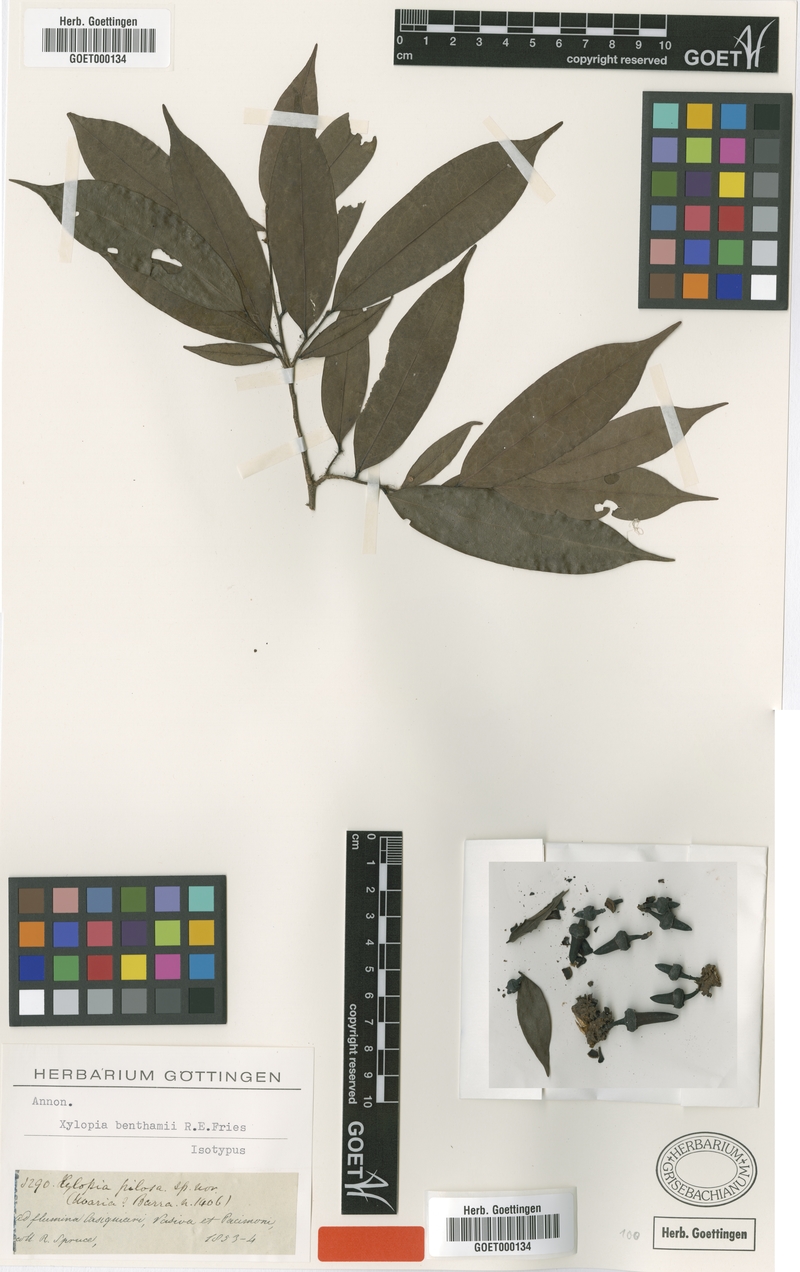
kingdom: Plantae
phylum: Tracheophyta
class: Magnoliopsida
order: Magnoliales
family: Annonaceae
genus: Xylopia
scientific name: Xylopia benthamii
